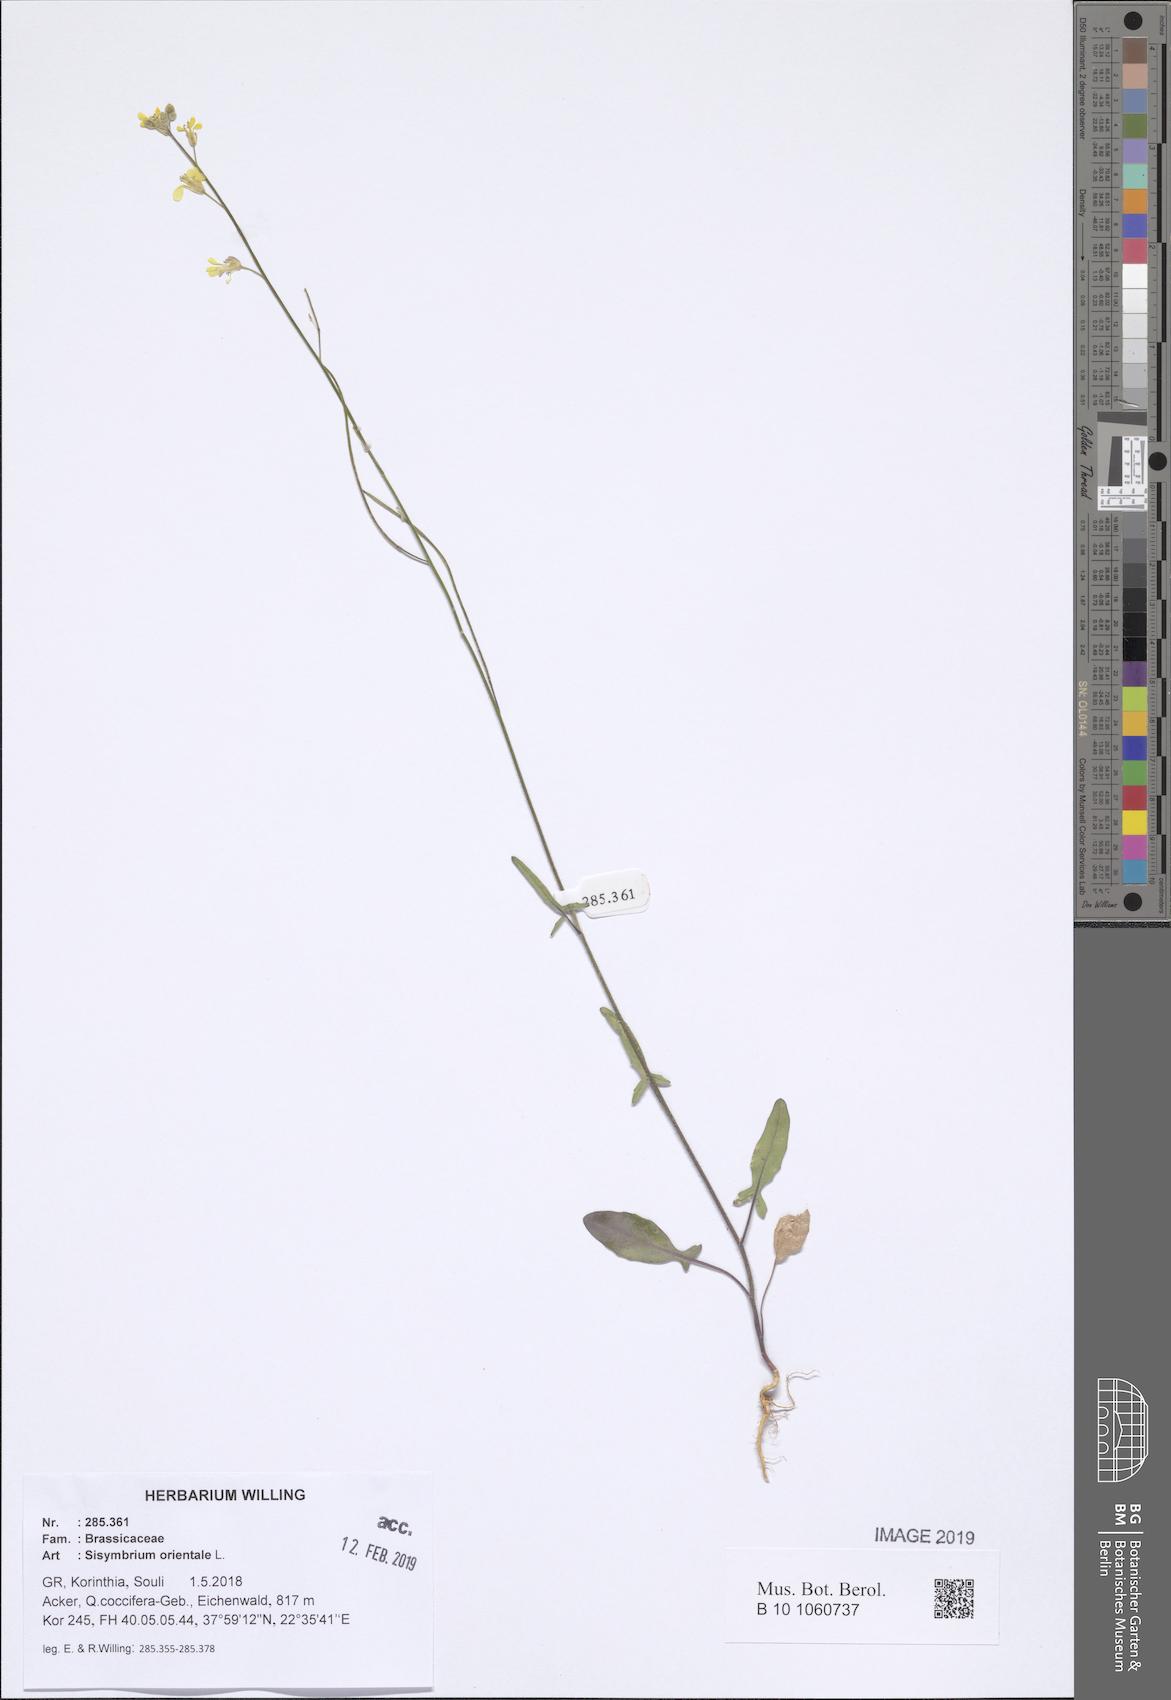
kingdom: Plantae
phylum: Tracheophyta
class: Magnoliopsida
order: Brassicales
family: Brassicaceae
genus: Sisymbrium
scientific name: Sisymbrium orientale
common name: Eastern rocket
